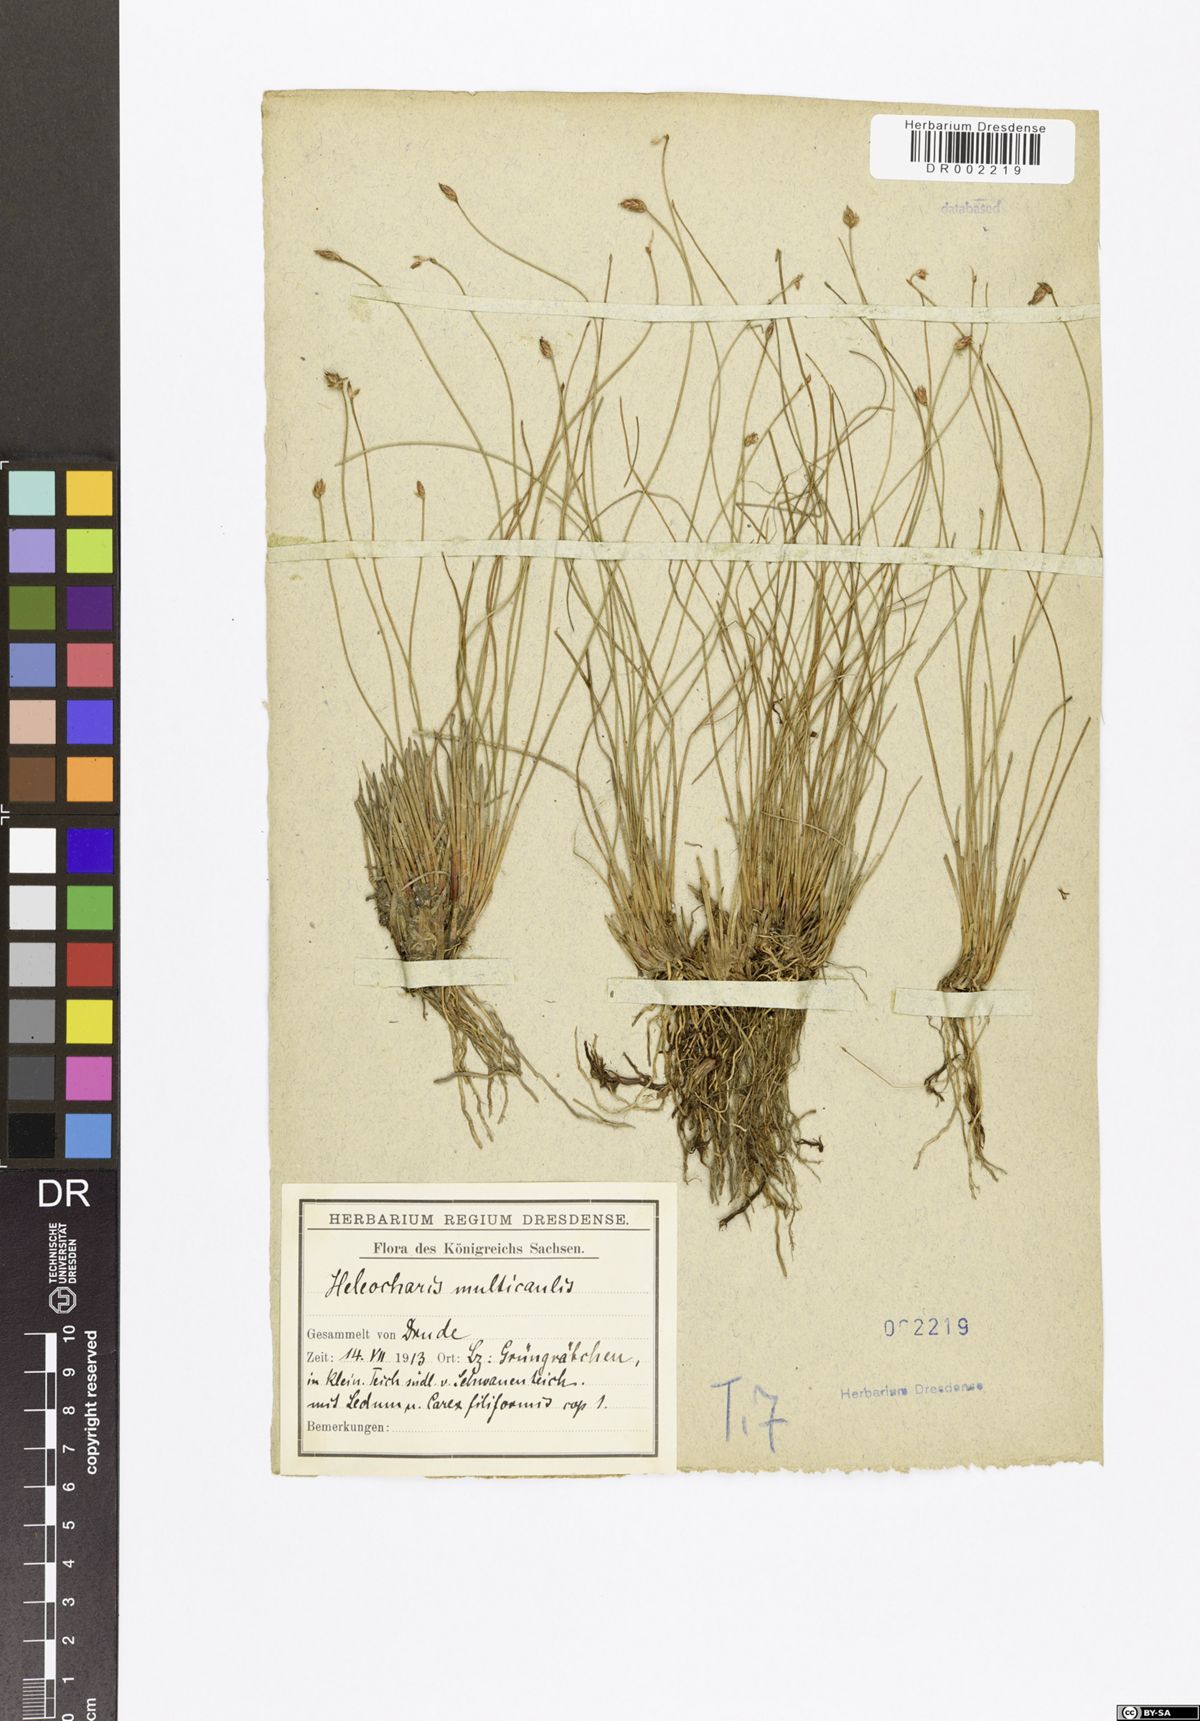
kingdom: Plantae
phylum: Tracheophyta
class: Liliopsida
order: Poales
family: Cyperaceae
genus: Eleocharis
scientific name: Eleocharis multicaulis
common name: Many-stalked spike-rush
